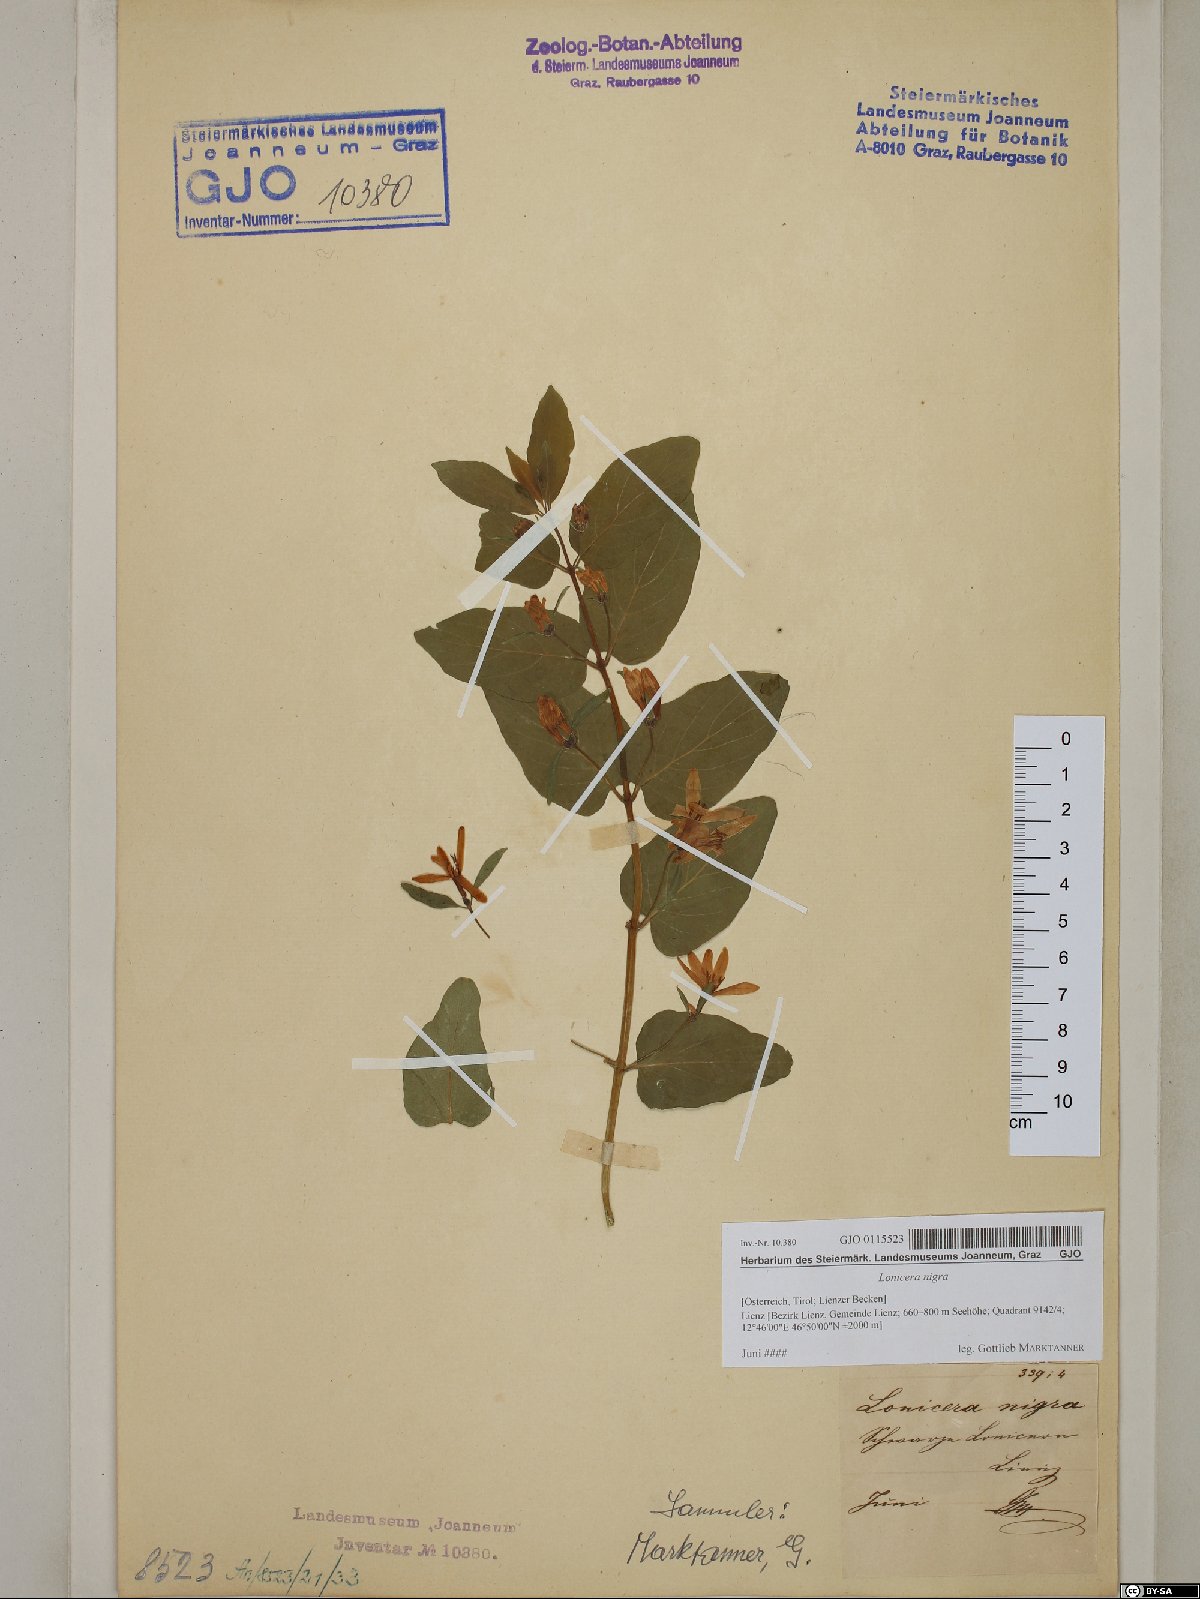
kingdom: Plantae
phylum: Tracheophyta
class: Magnoliopsida
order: Dipsacales
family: Caprifoliaceae
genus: Lonicera
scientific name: Lonicera nigra
